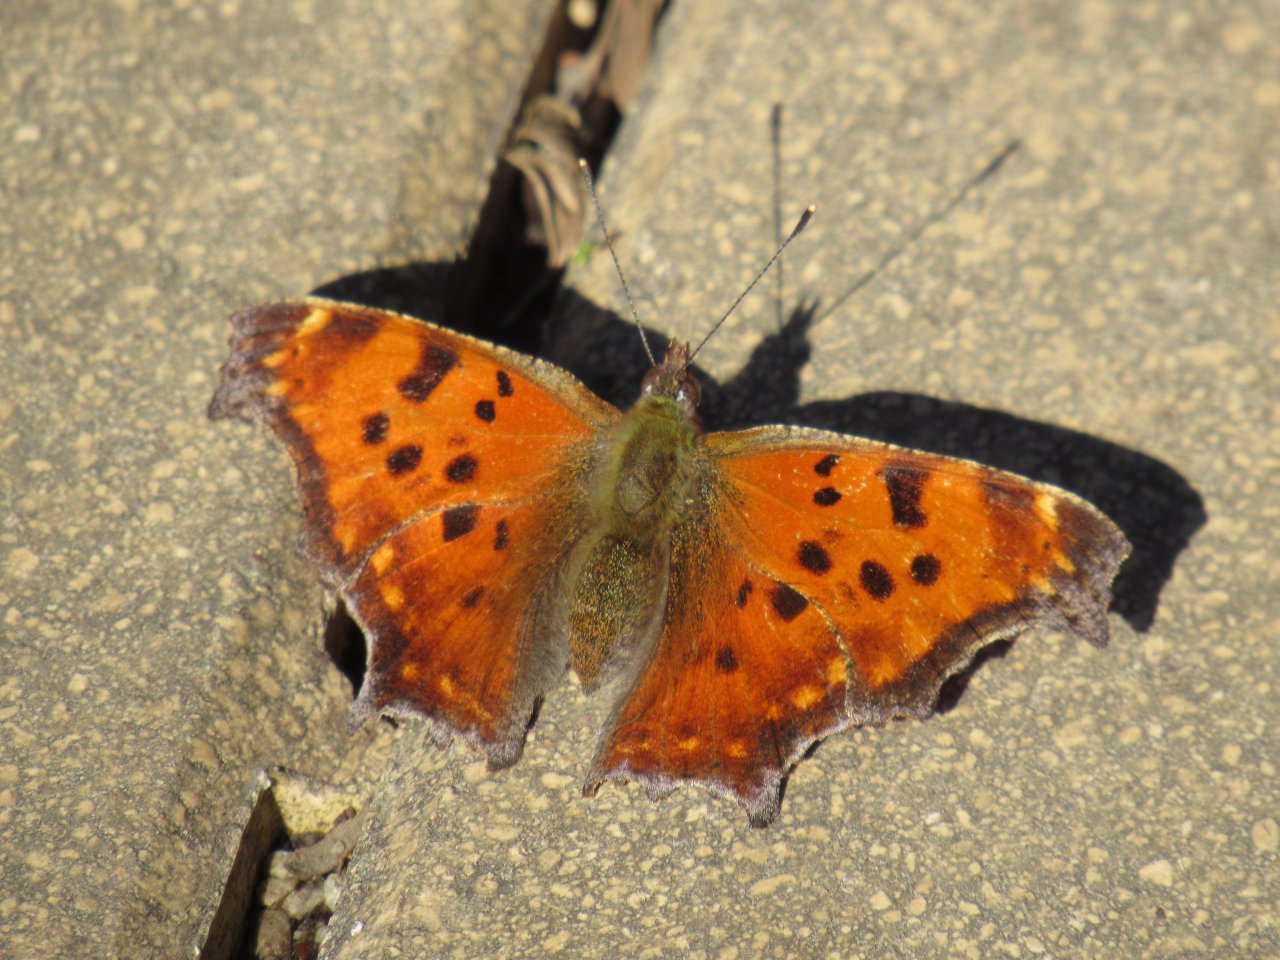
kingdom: Animalia
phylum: Arthropoda
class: Insecta
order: Lepidoptera
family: Nymphalidae
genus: Polygonia
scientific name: Polygonia comma
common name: Eastern Comma
